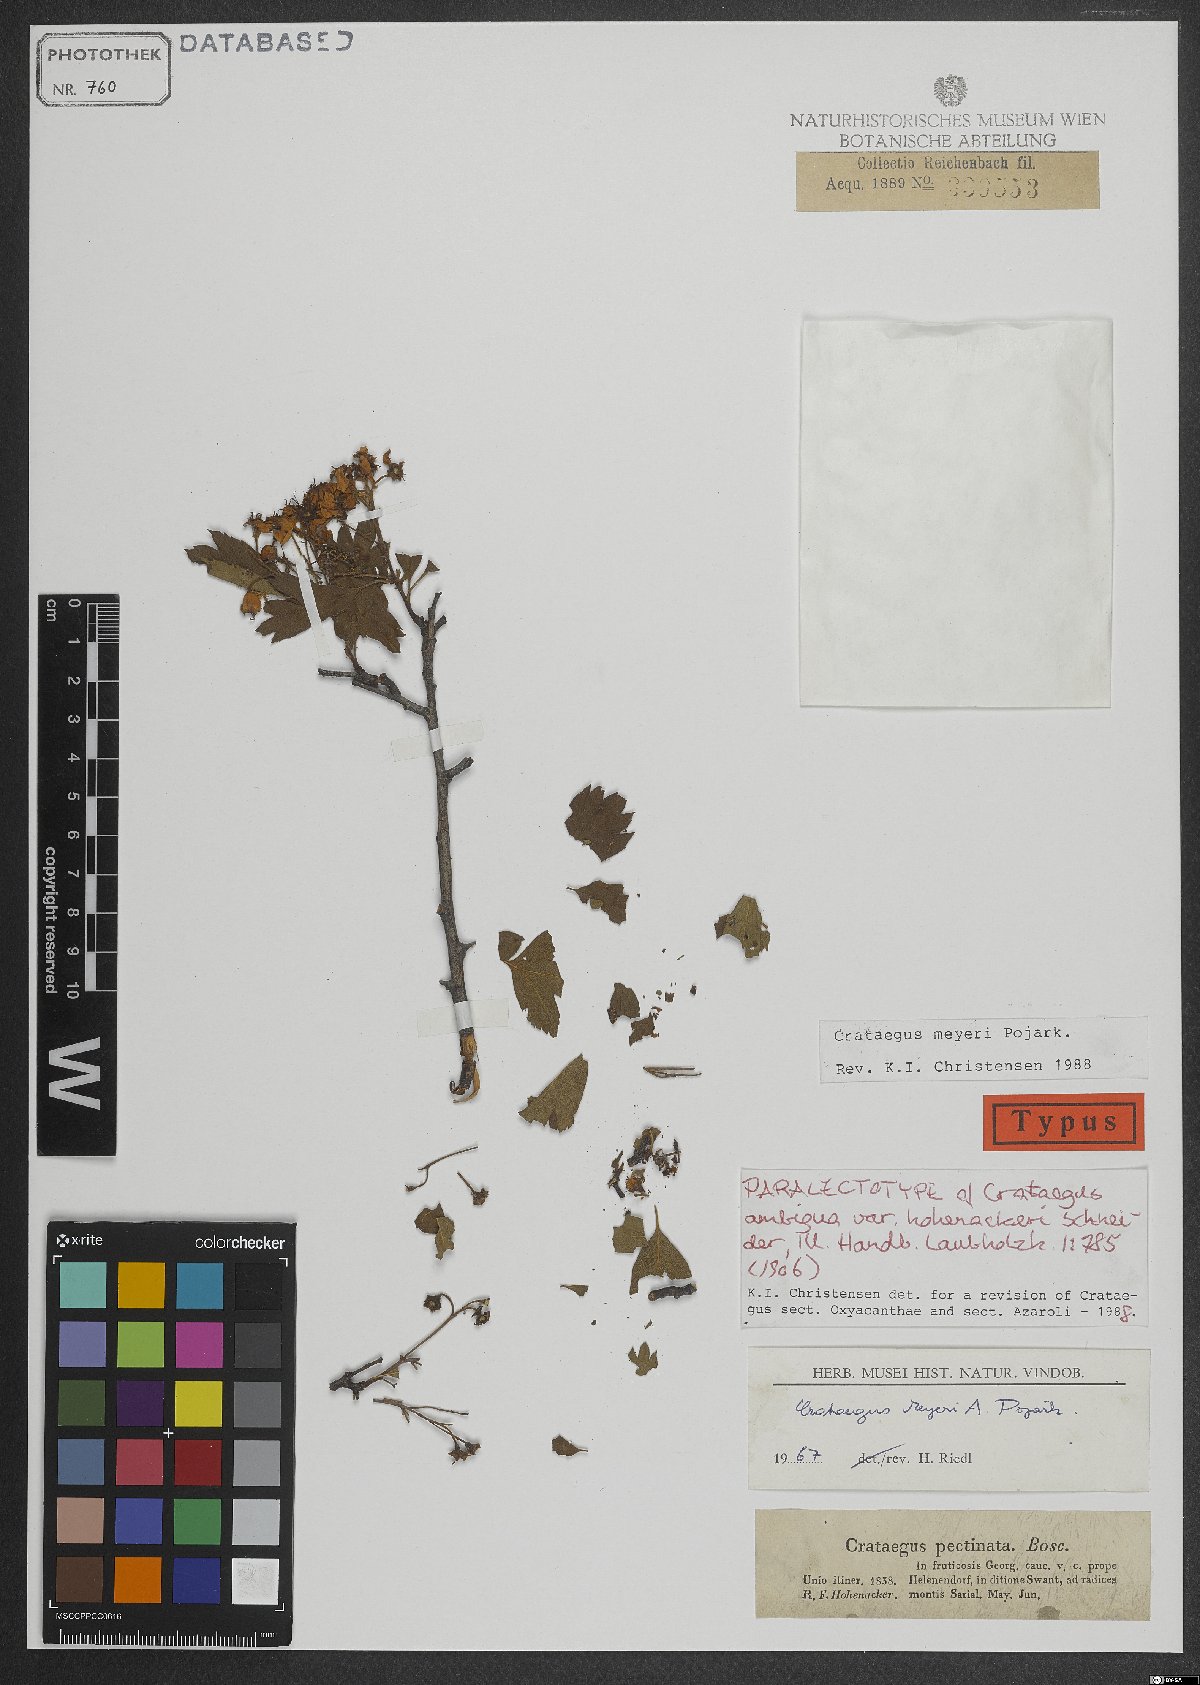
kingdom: Plantae
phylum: Tracheophyta
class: Magnoliopsida
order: Rosales
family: Rosaceae
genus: Crataegus
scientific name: Crataegus meyeri
